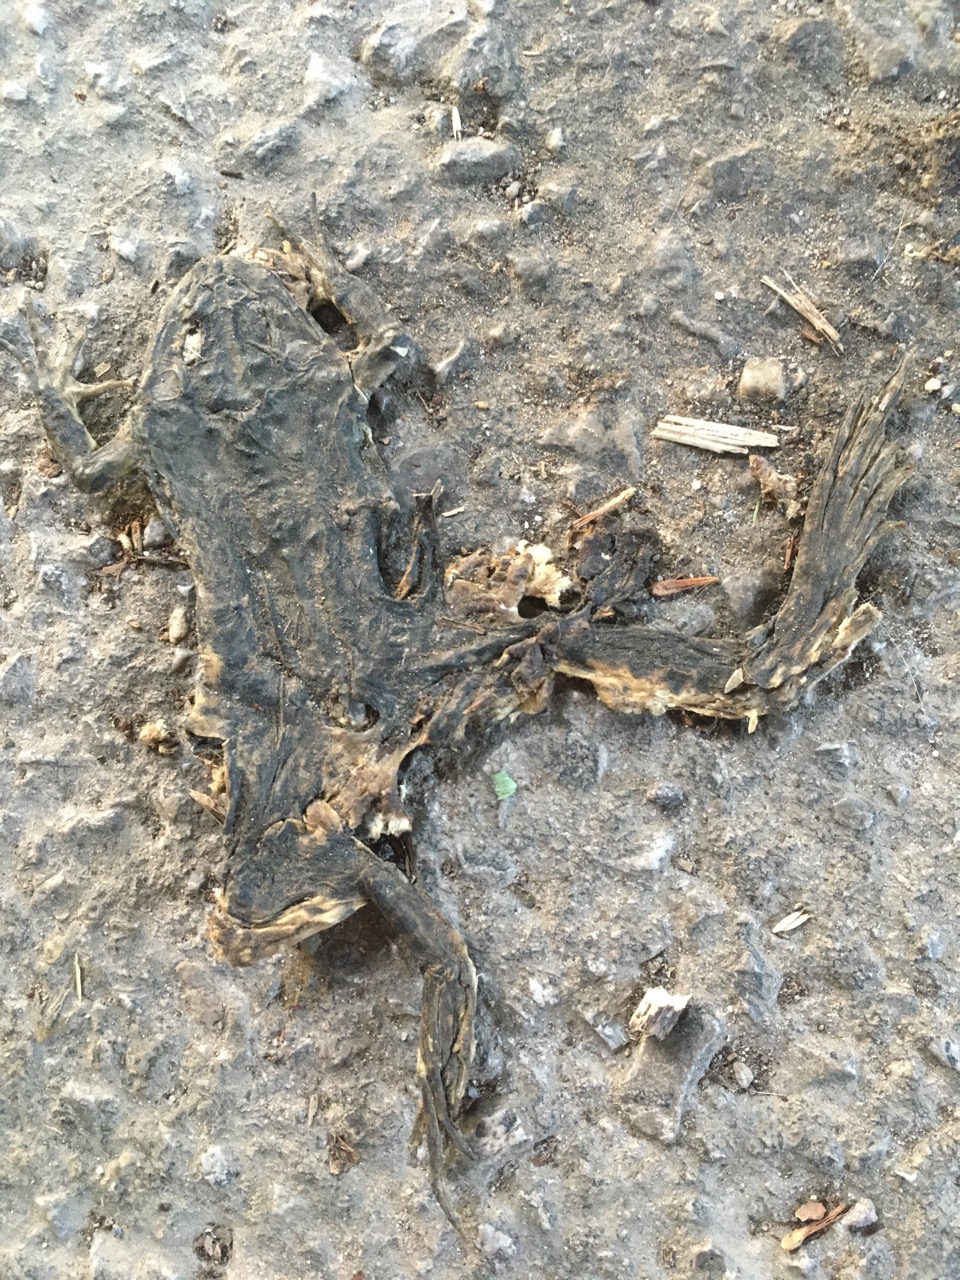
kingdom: Animalia
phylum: Chordata
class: Amphibia
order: Anura
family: Bufonidae
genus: Bufotes
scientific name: Bufotes viridis
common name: European green toad
